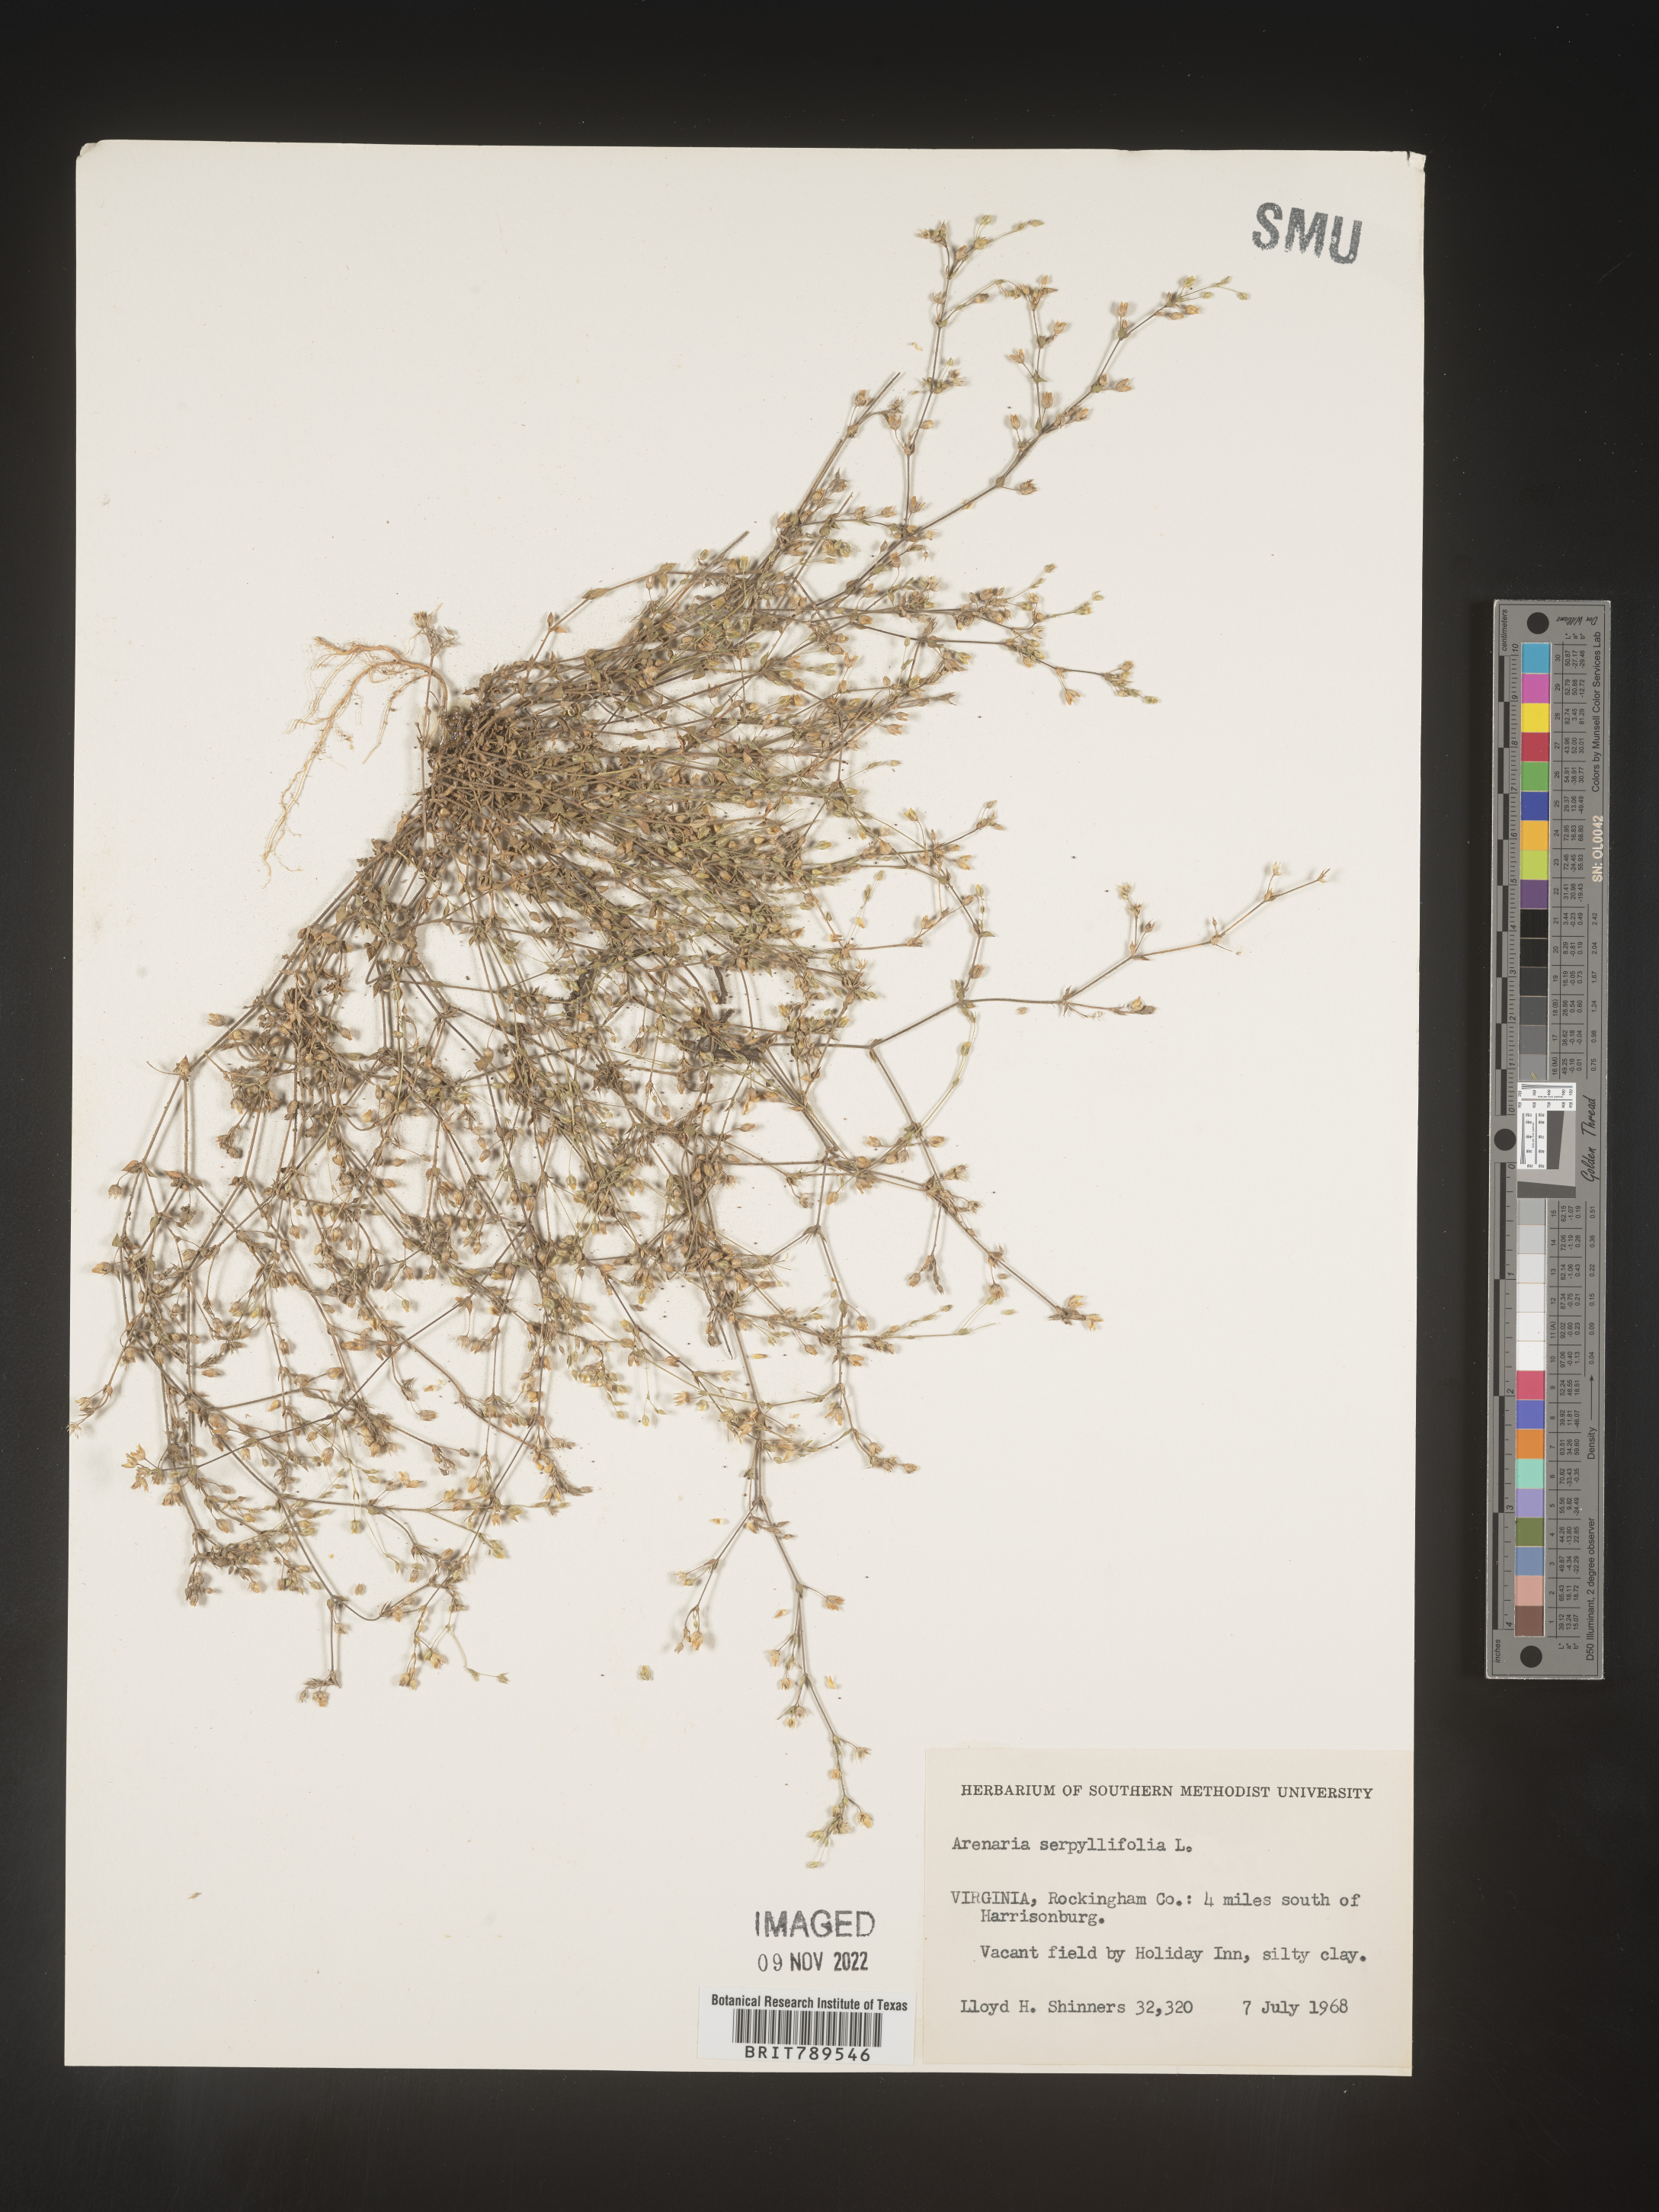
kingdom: Plantae
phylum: Tracheophyta
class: Magnoliopsida
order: Caryophyllales
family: Caryophyllaceae
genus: Arenaria
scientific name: Arenaria serpyllifolia
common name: Thyme-leaved sandwort
